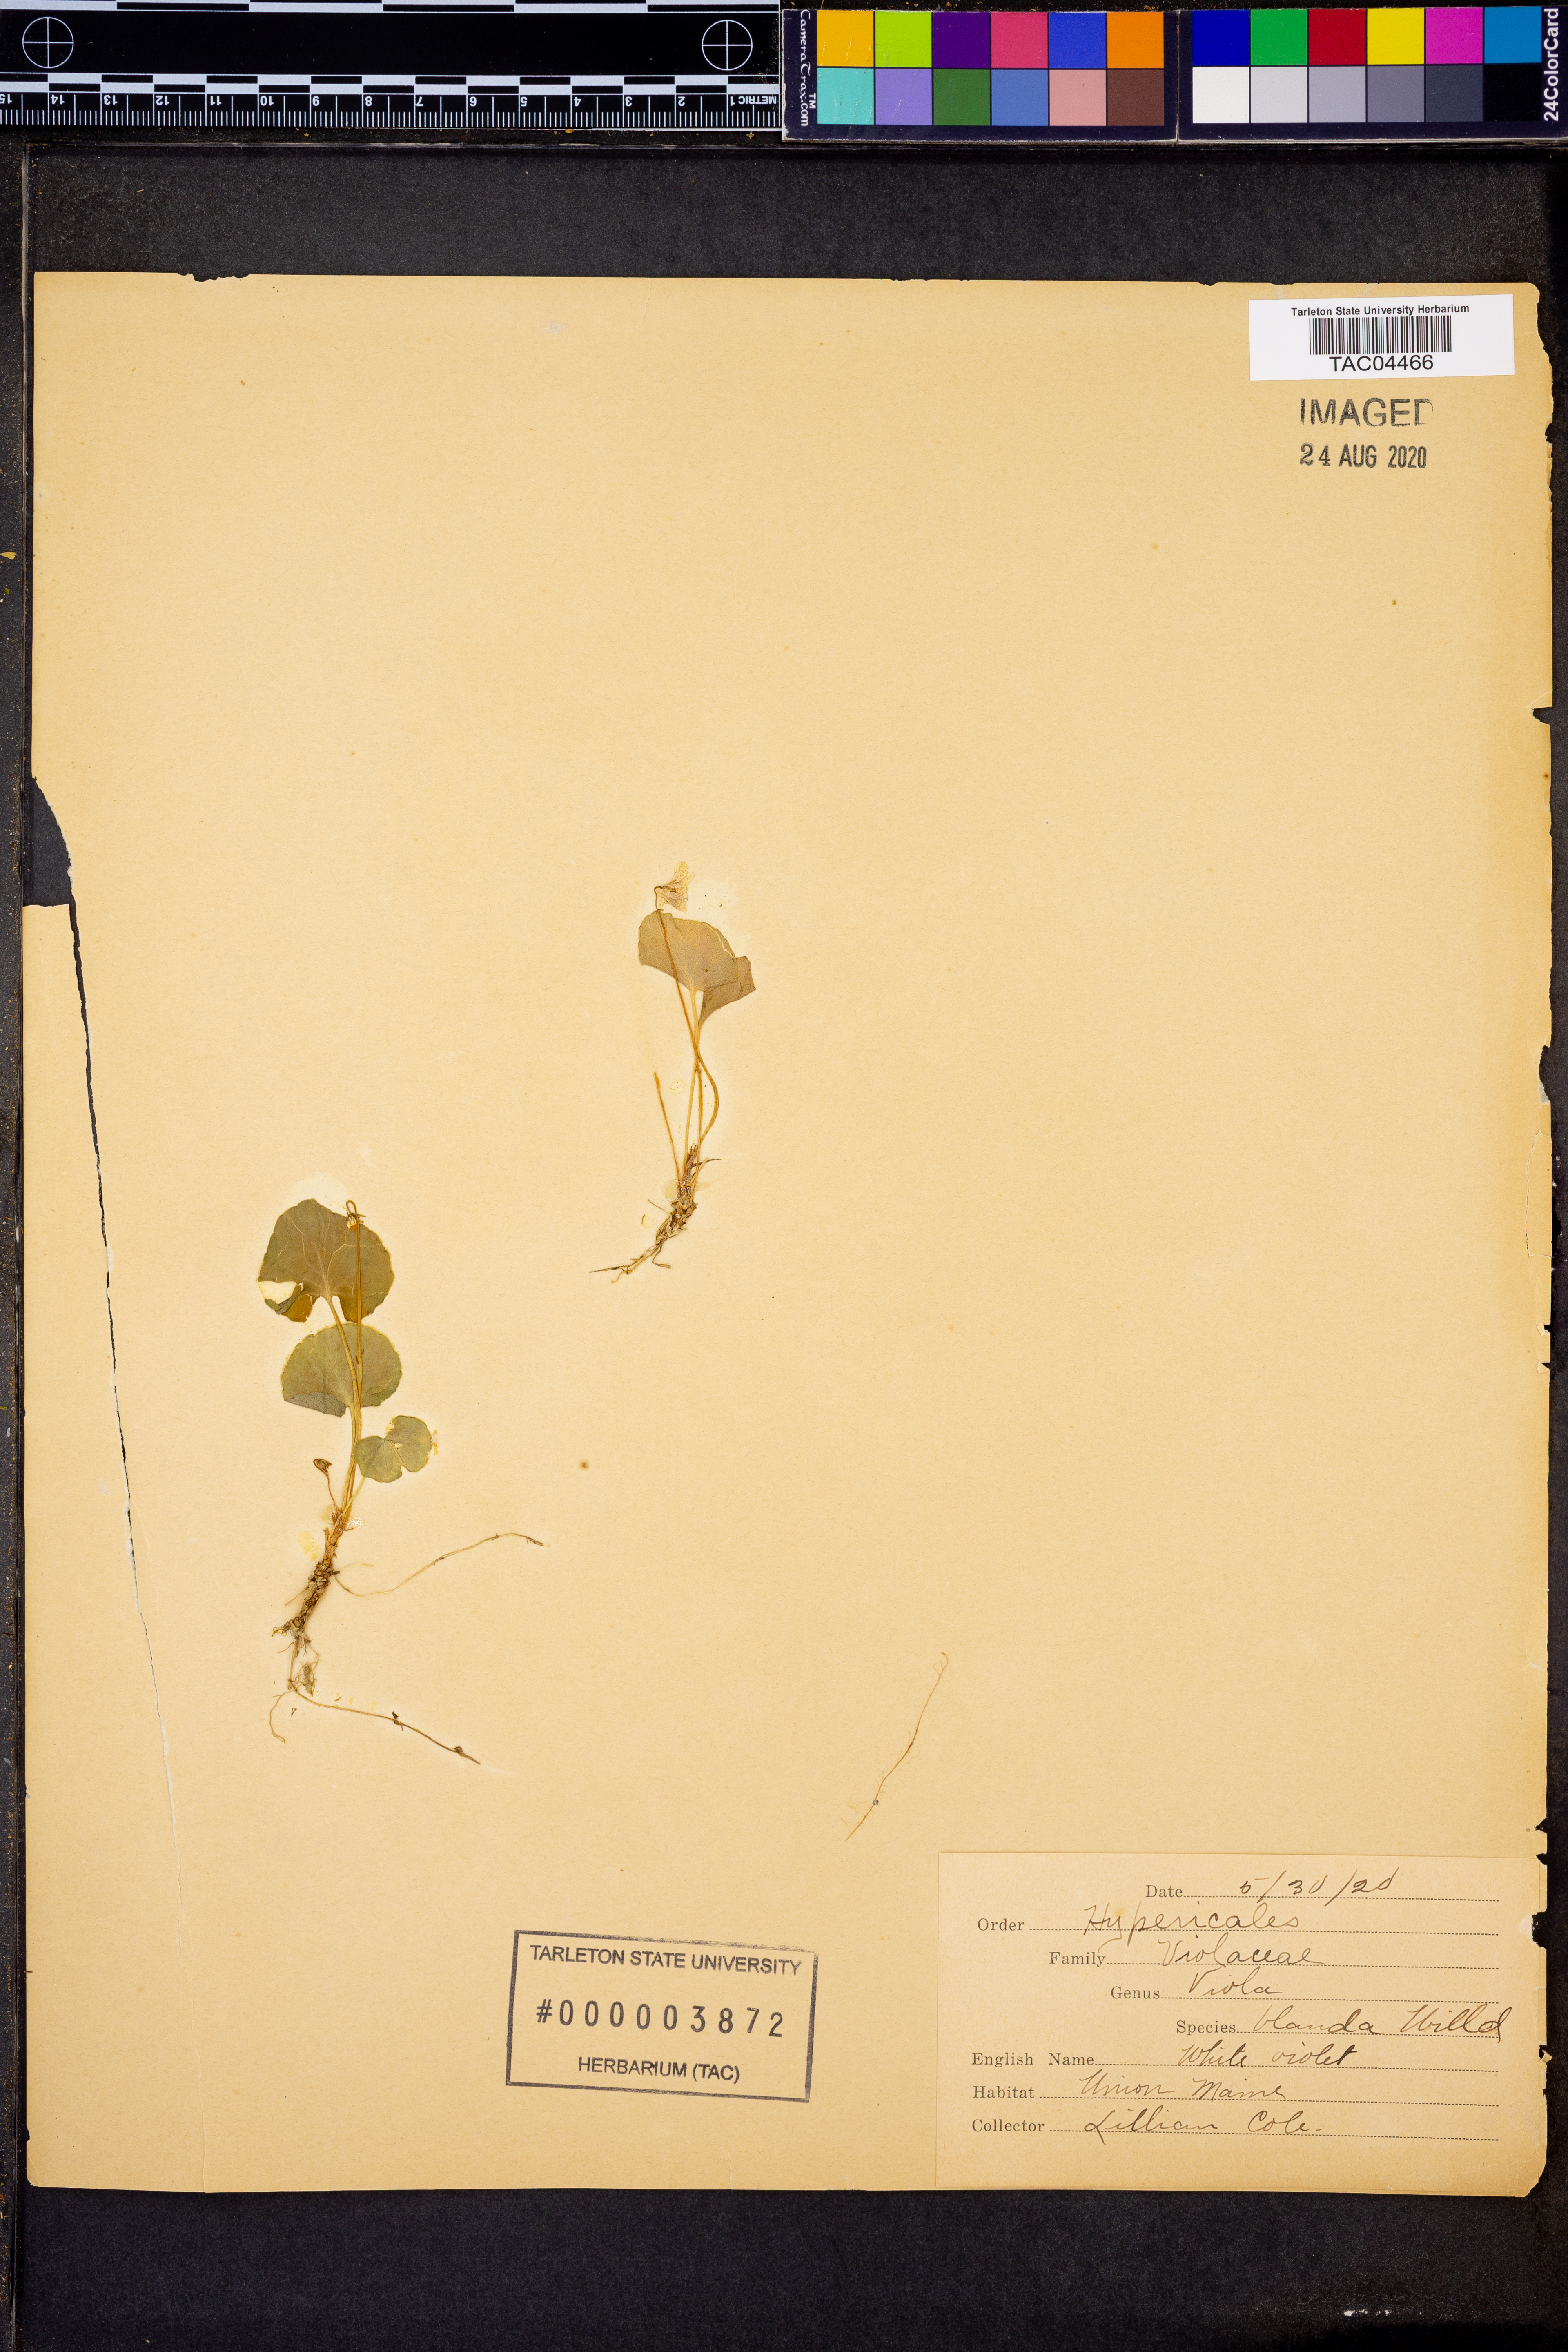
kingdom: Plantae
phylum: Tracheophyta
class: Magnoliopsida
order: Malpighiales
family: Violaceae
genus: Viola
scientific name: Viola blanda
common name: Sweet white violet
